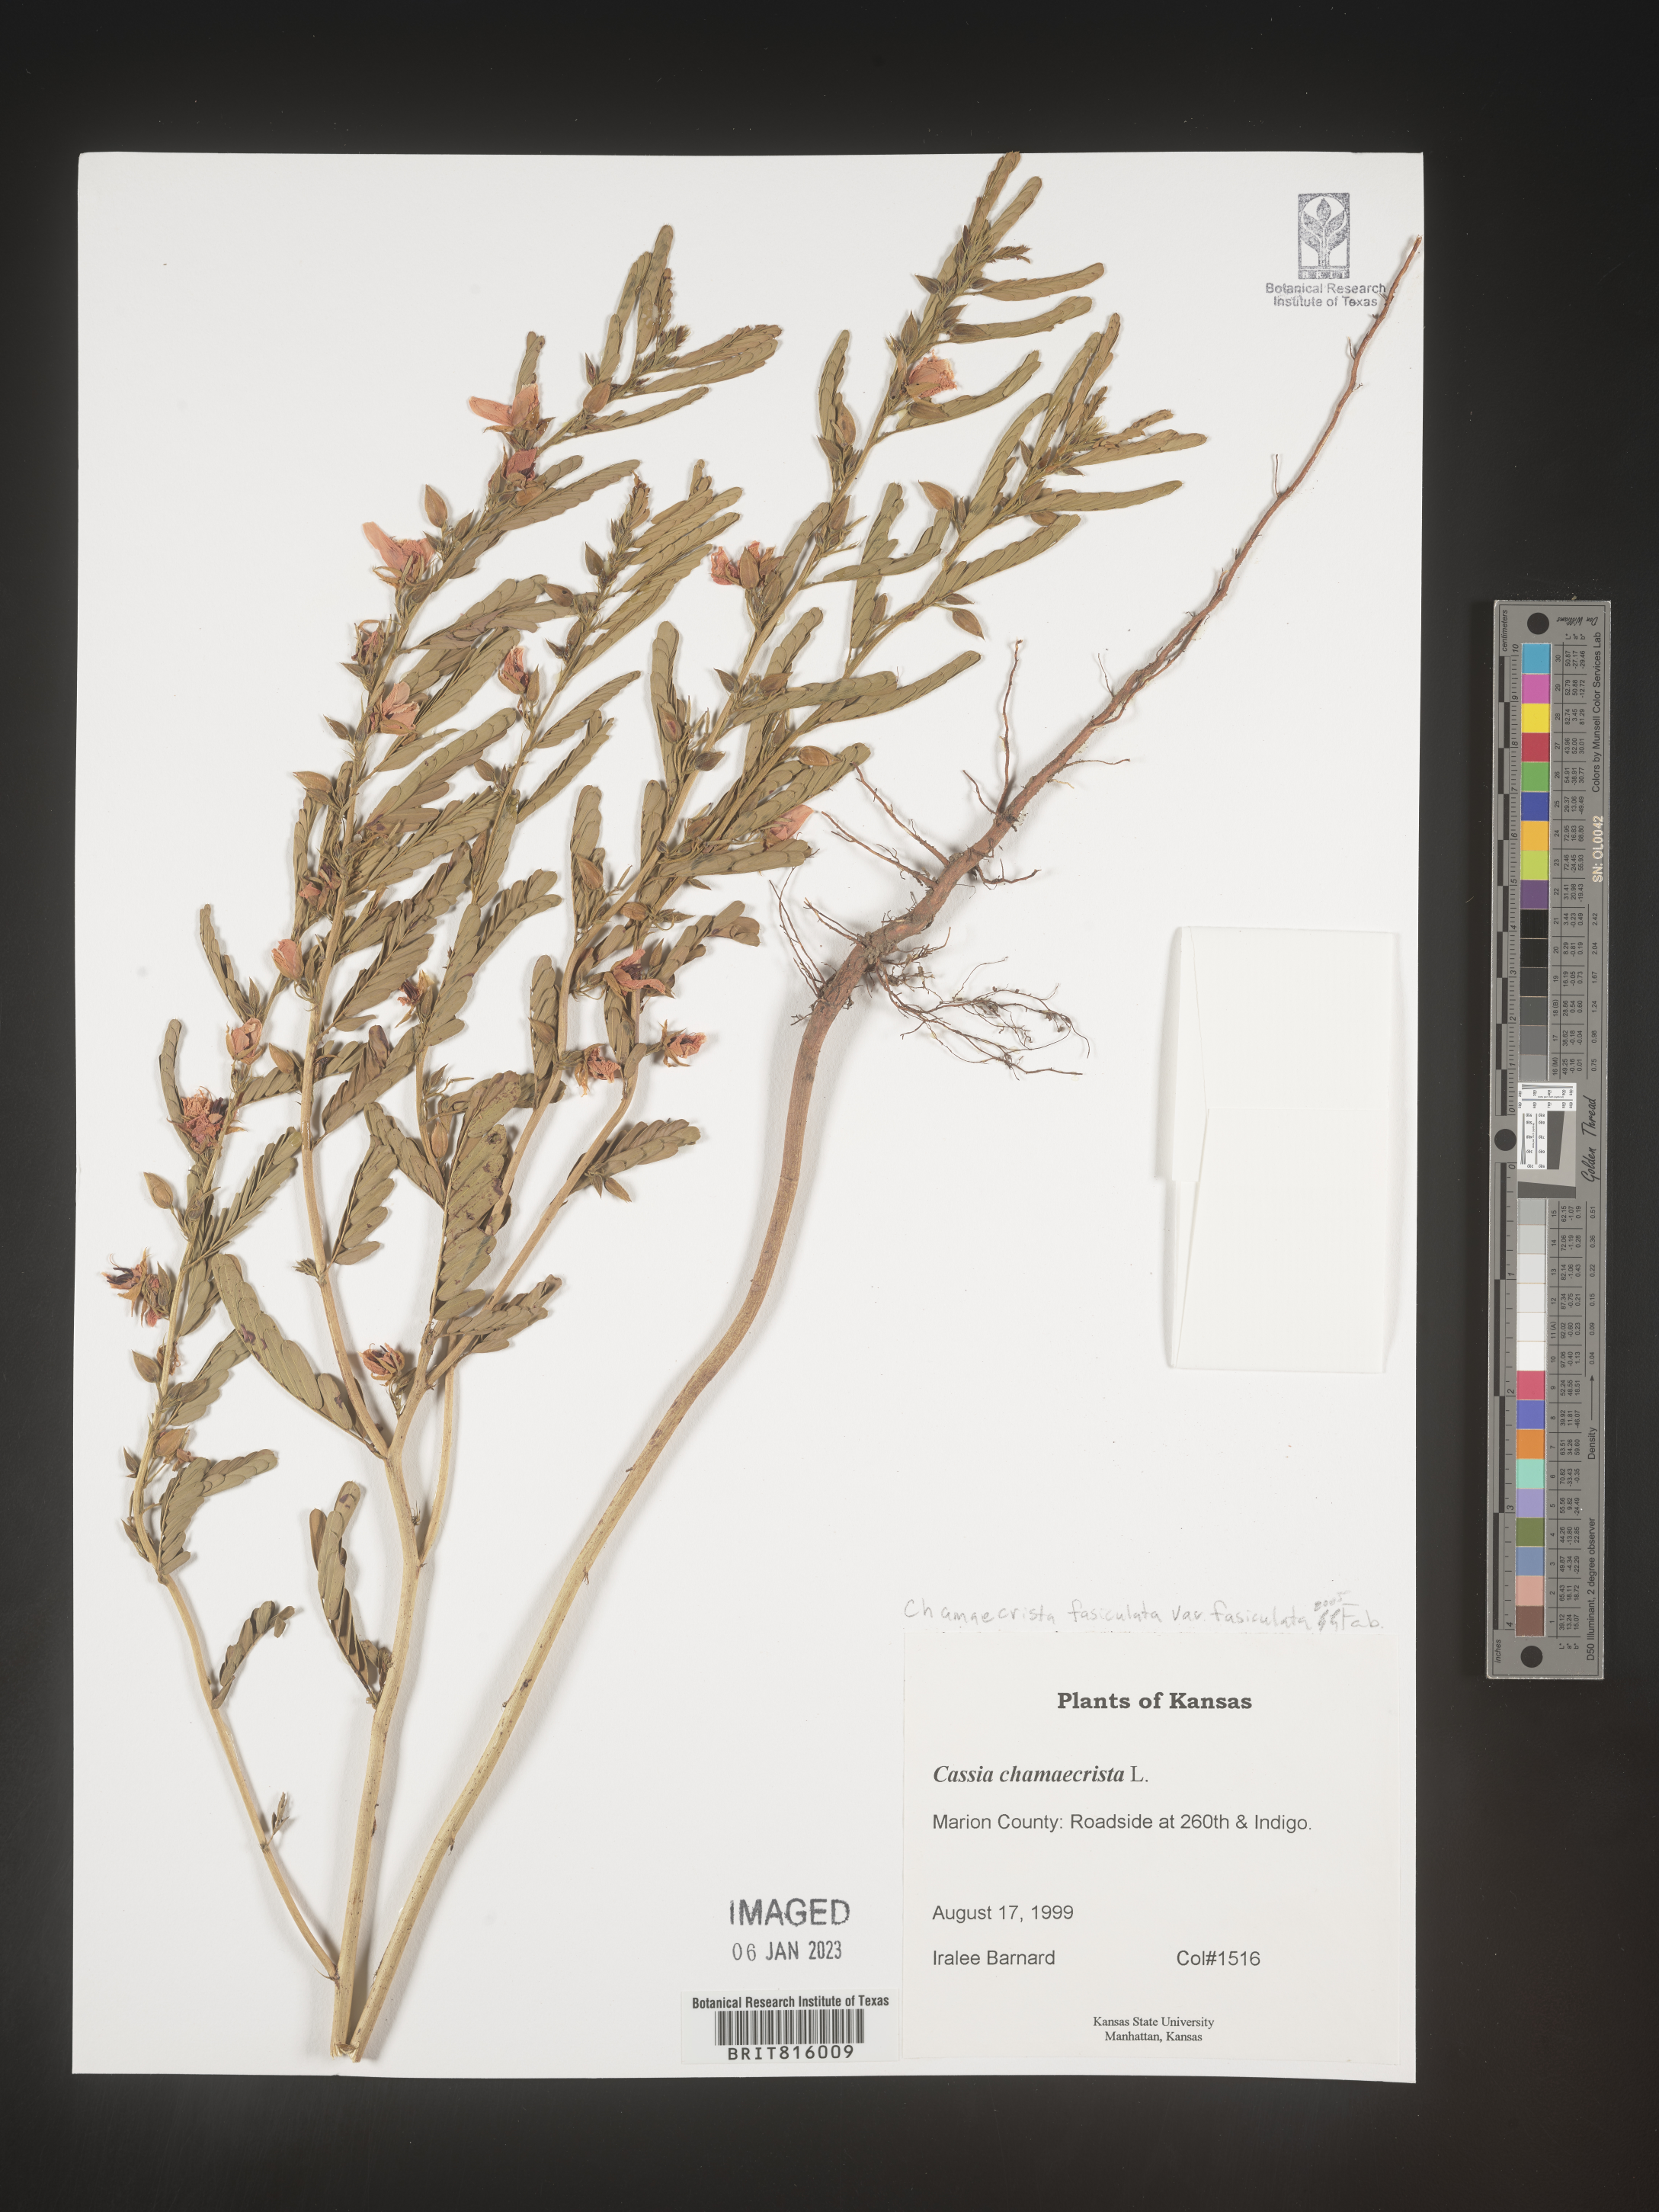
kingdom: Plantae
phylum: Tracheophyta
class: Magnoliopsida
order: Fabales
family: Fabaceae
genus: Chamaecrista
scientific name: Chamaecrista fasciculata
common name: Golden cassia
